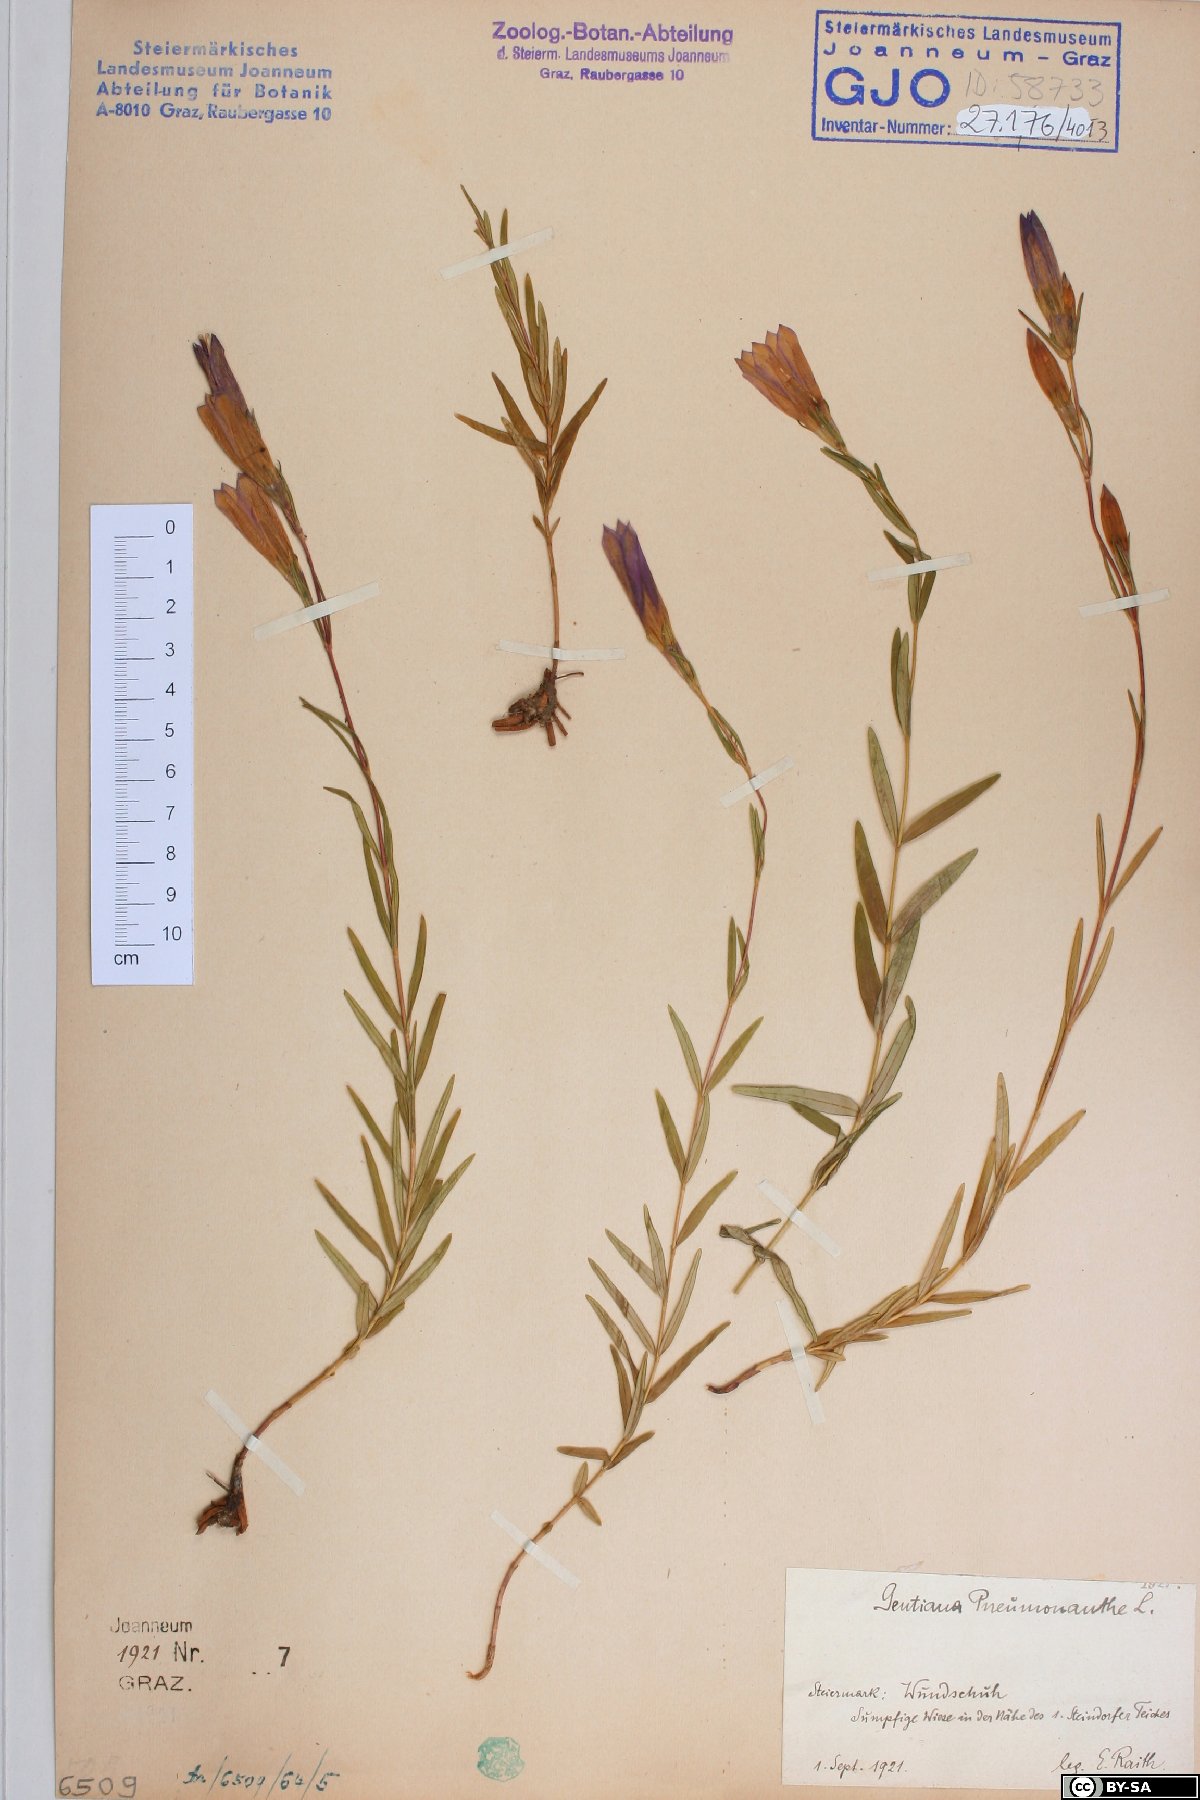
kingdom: Plantae
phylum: Tracheophyta
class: Magnoliopsida
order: Gentianales
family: Gentianaceae
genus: Gentiana
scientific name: Gentiana pneumonanthe
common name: Marsh gentian
